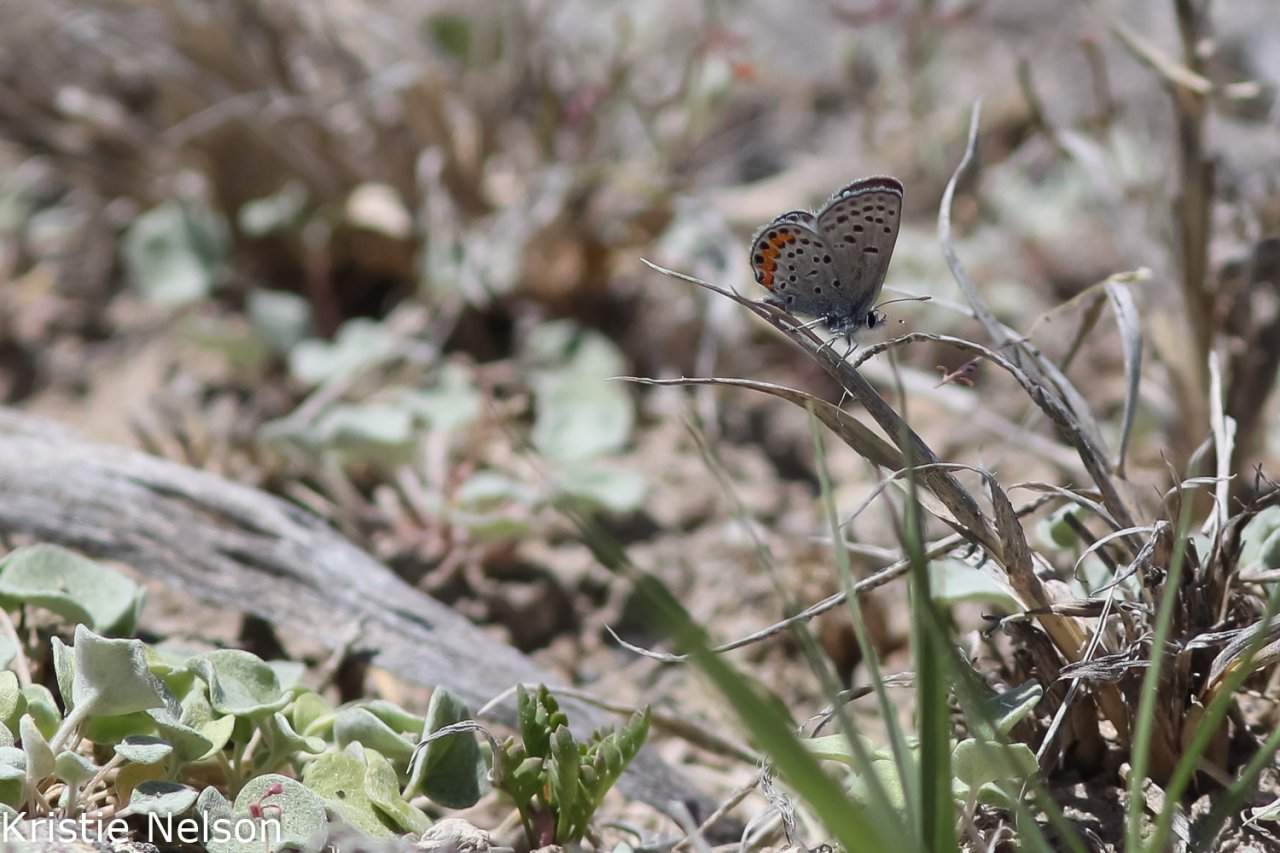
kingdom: Animalia
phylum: Arthropoda
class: Insecta
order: Lepidoptera
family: Lycaenidae
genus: Plebejus
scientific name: Plebejus acmon
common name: Acmon Blue
